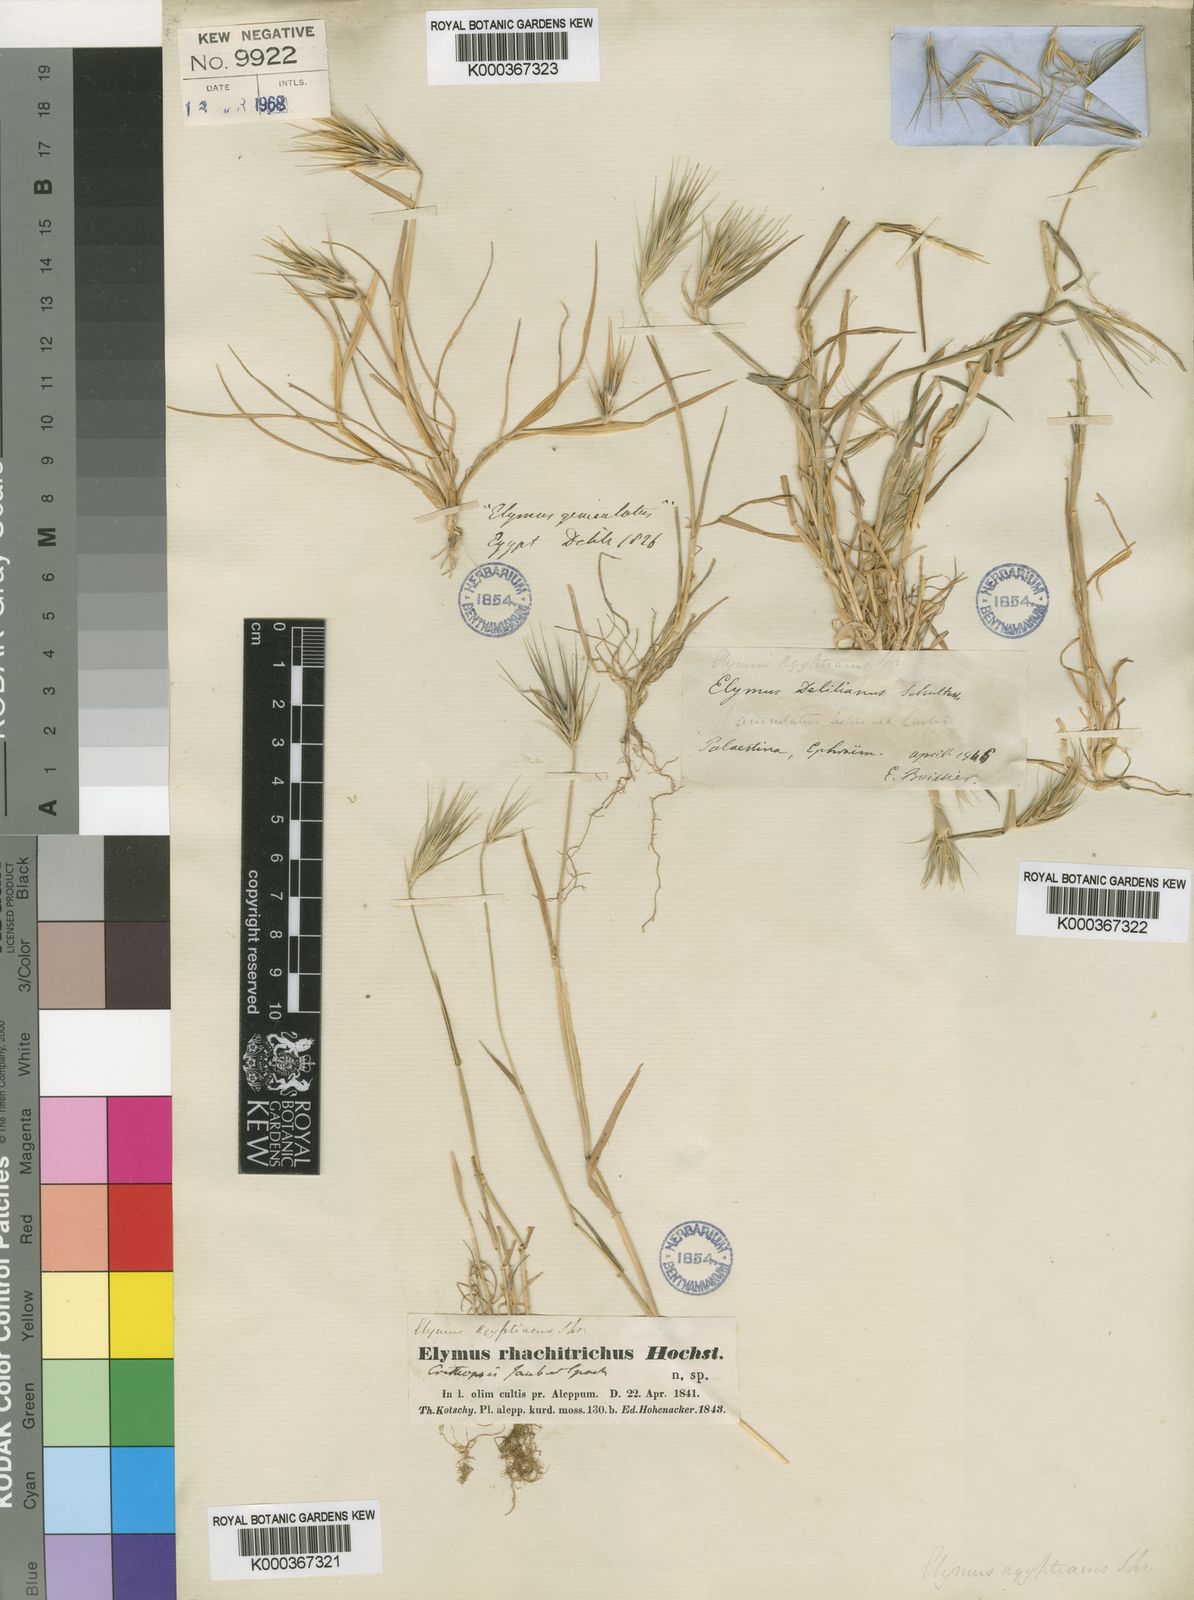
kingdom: Plantae
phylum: Tracheophyta
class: Liliopsida
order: Poales
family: Poaceae
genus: Crithopsis
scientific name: Crithopsis
